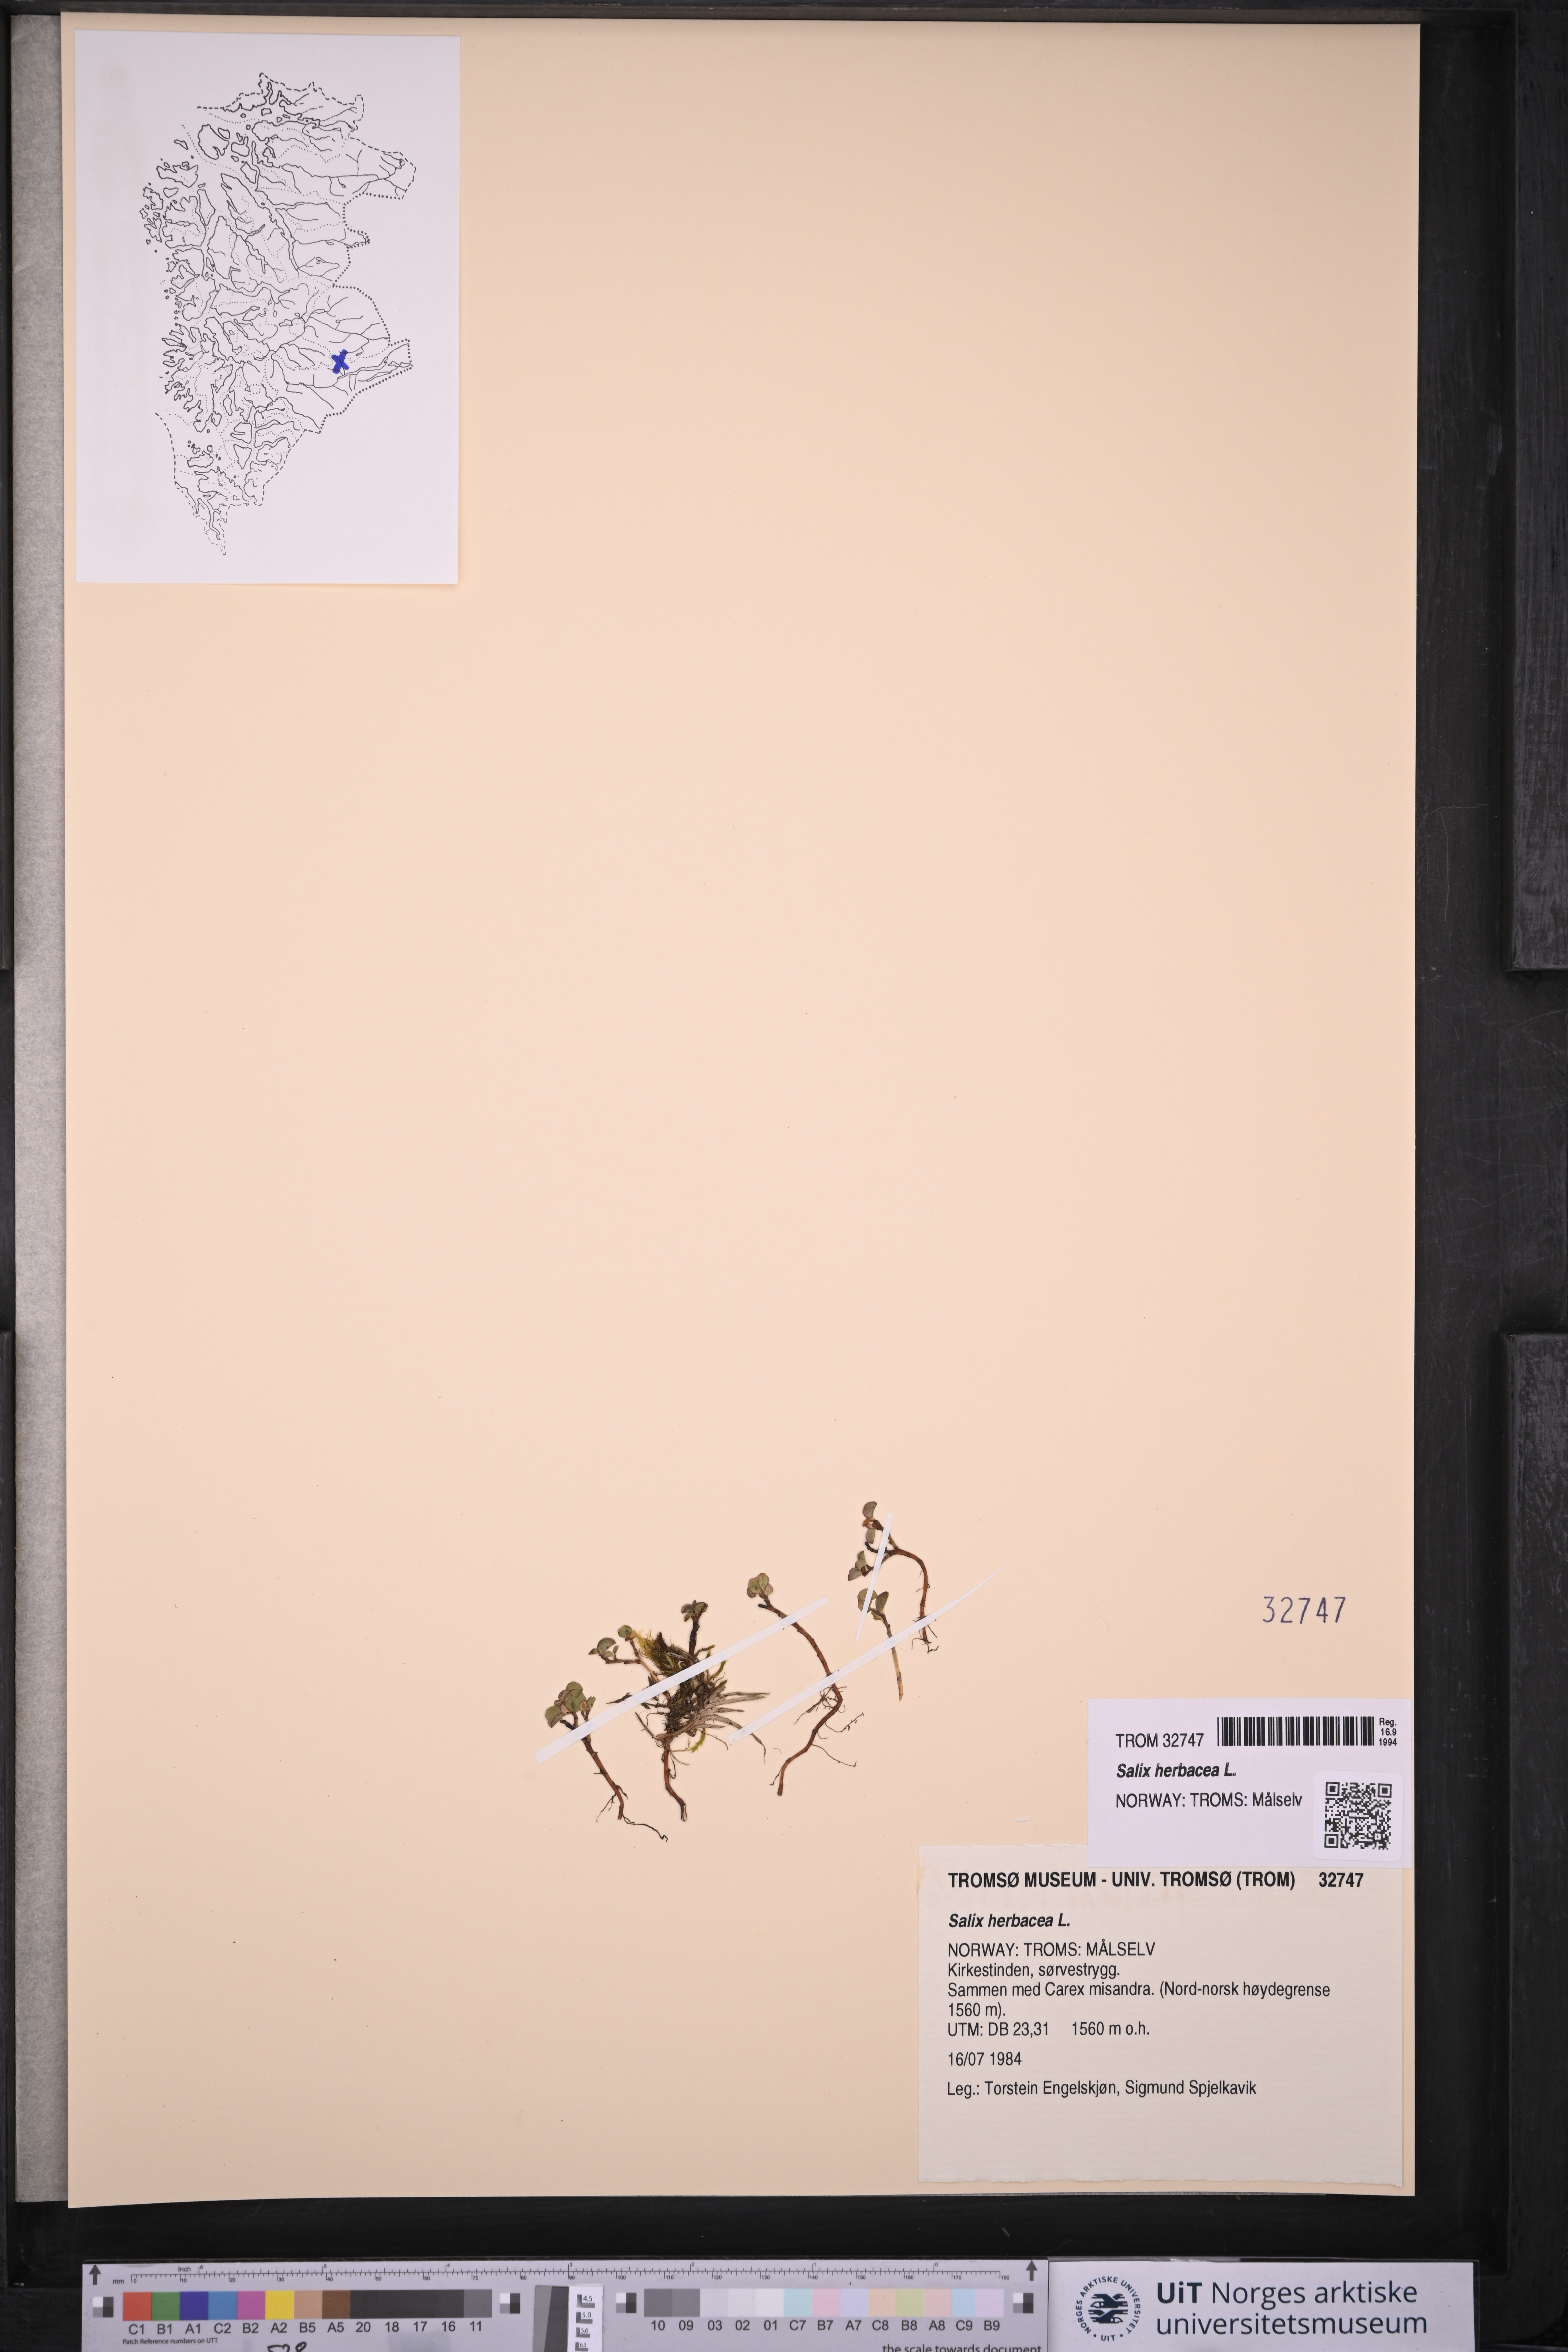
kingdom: Plantae
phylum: Tracheophyta
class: Magnoliopsida
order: Malpighiales
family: Salicaceae
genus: Salix
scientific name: Salix herbacea
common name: Dwarf willow
